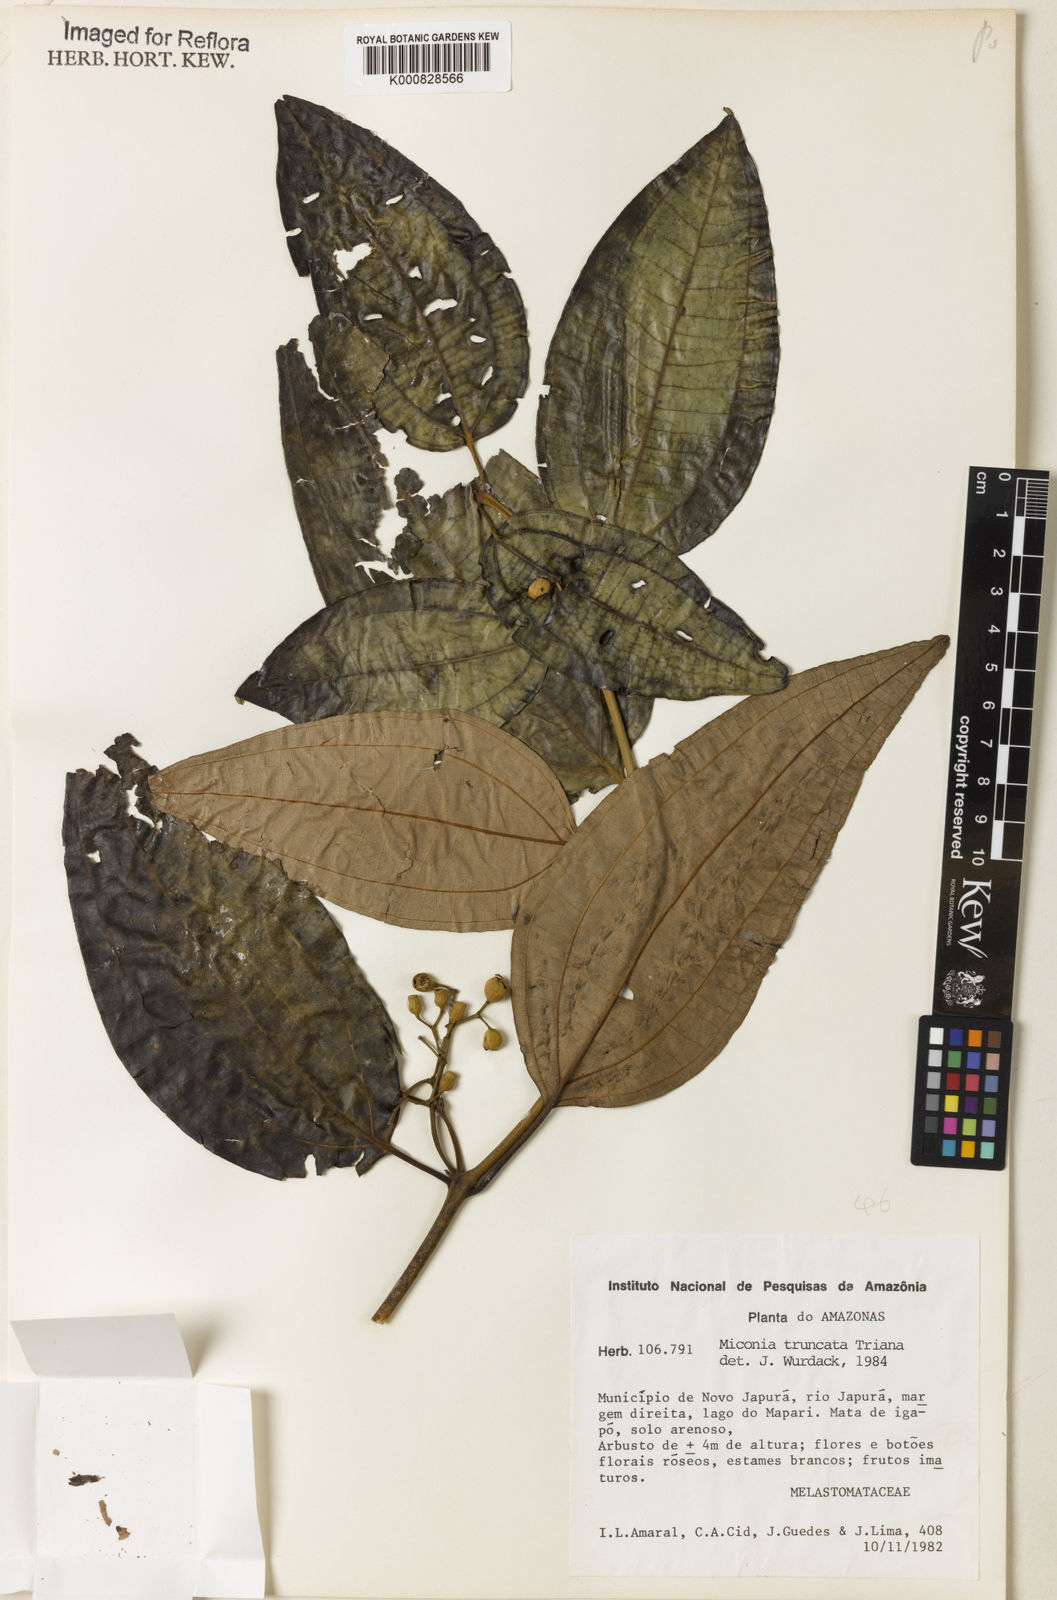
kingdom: Plantae
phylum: Tracheophyta
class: Magnoliopsida
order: Myrtales
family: Melastomataceae
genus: Miconia
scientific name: Miconia aurea
